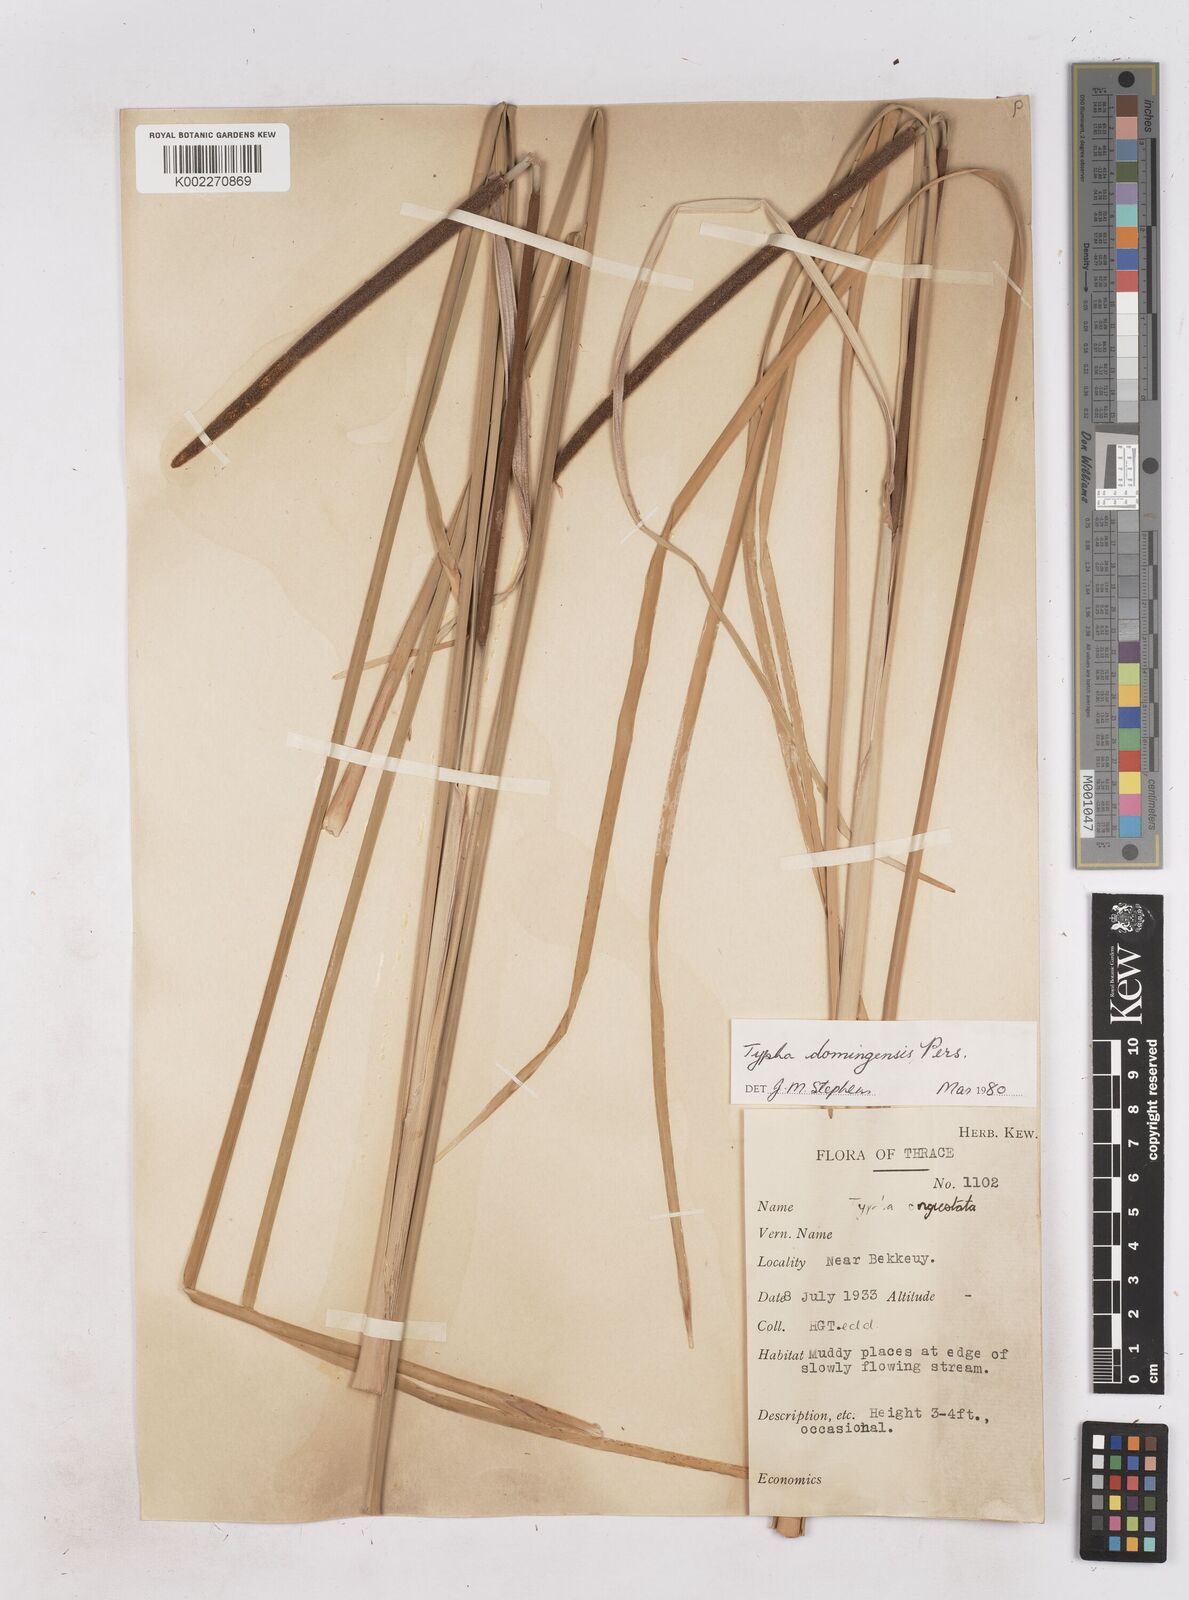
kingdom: Plantae
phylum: Tracheophyta
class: Liliopsida
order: Poales
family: Typhaceae
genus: Typha
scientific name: Typha domingensis
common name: Southern cattail
